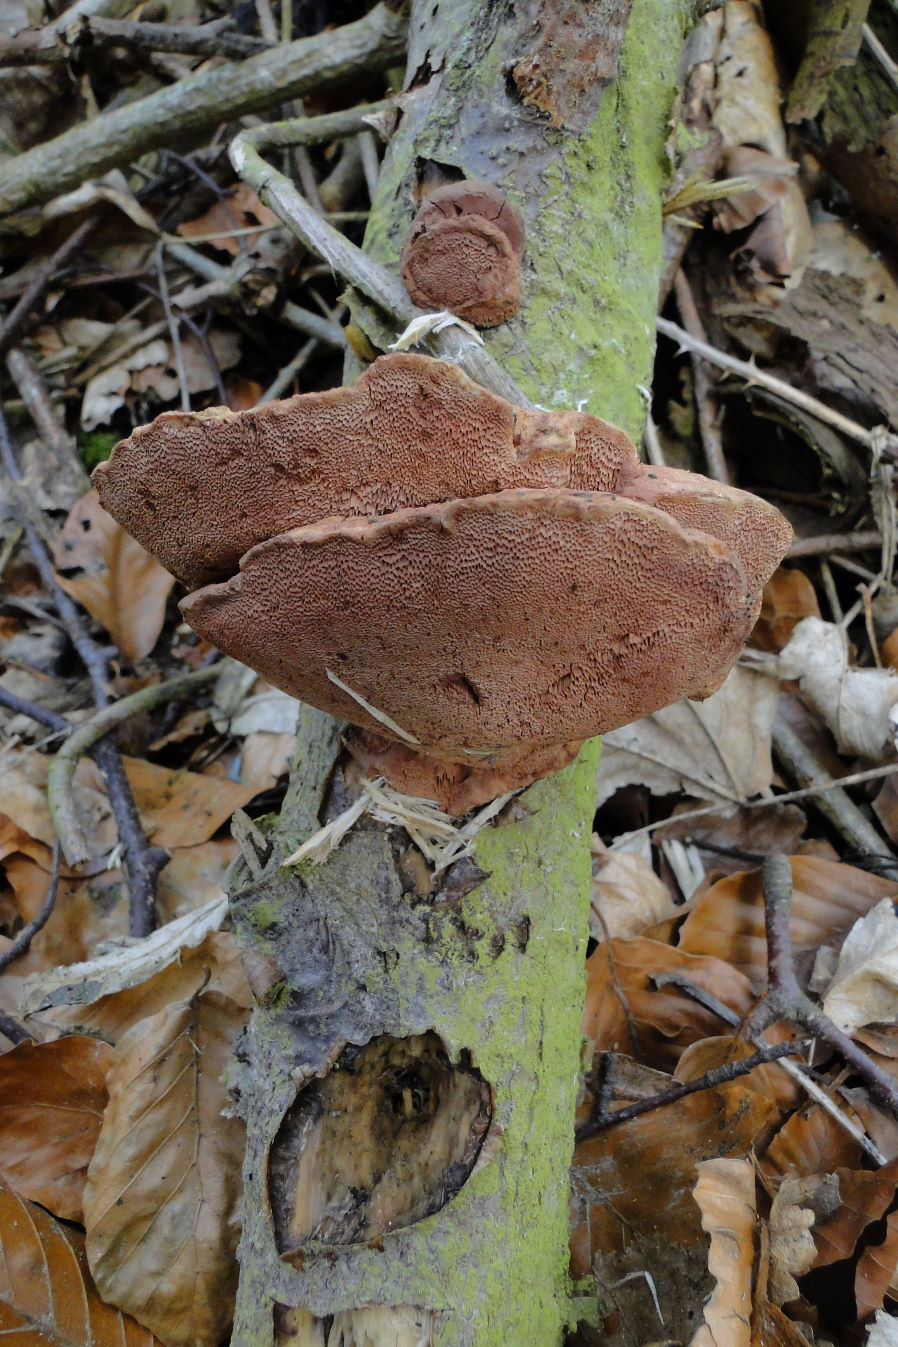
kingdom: Fungi
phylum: Basidiomycota
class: Agaricomycetes
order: Polyporales
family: Phanerochaetaceae
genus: Hapalopilus
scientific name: Hapalopilus rutilans
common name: rødlig okkerporesvamp
